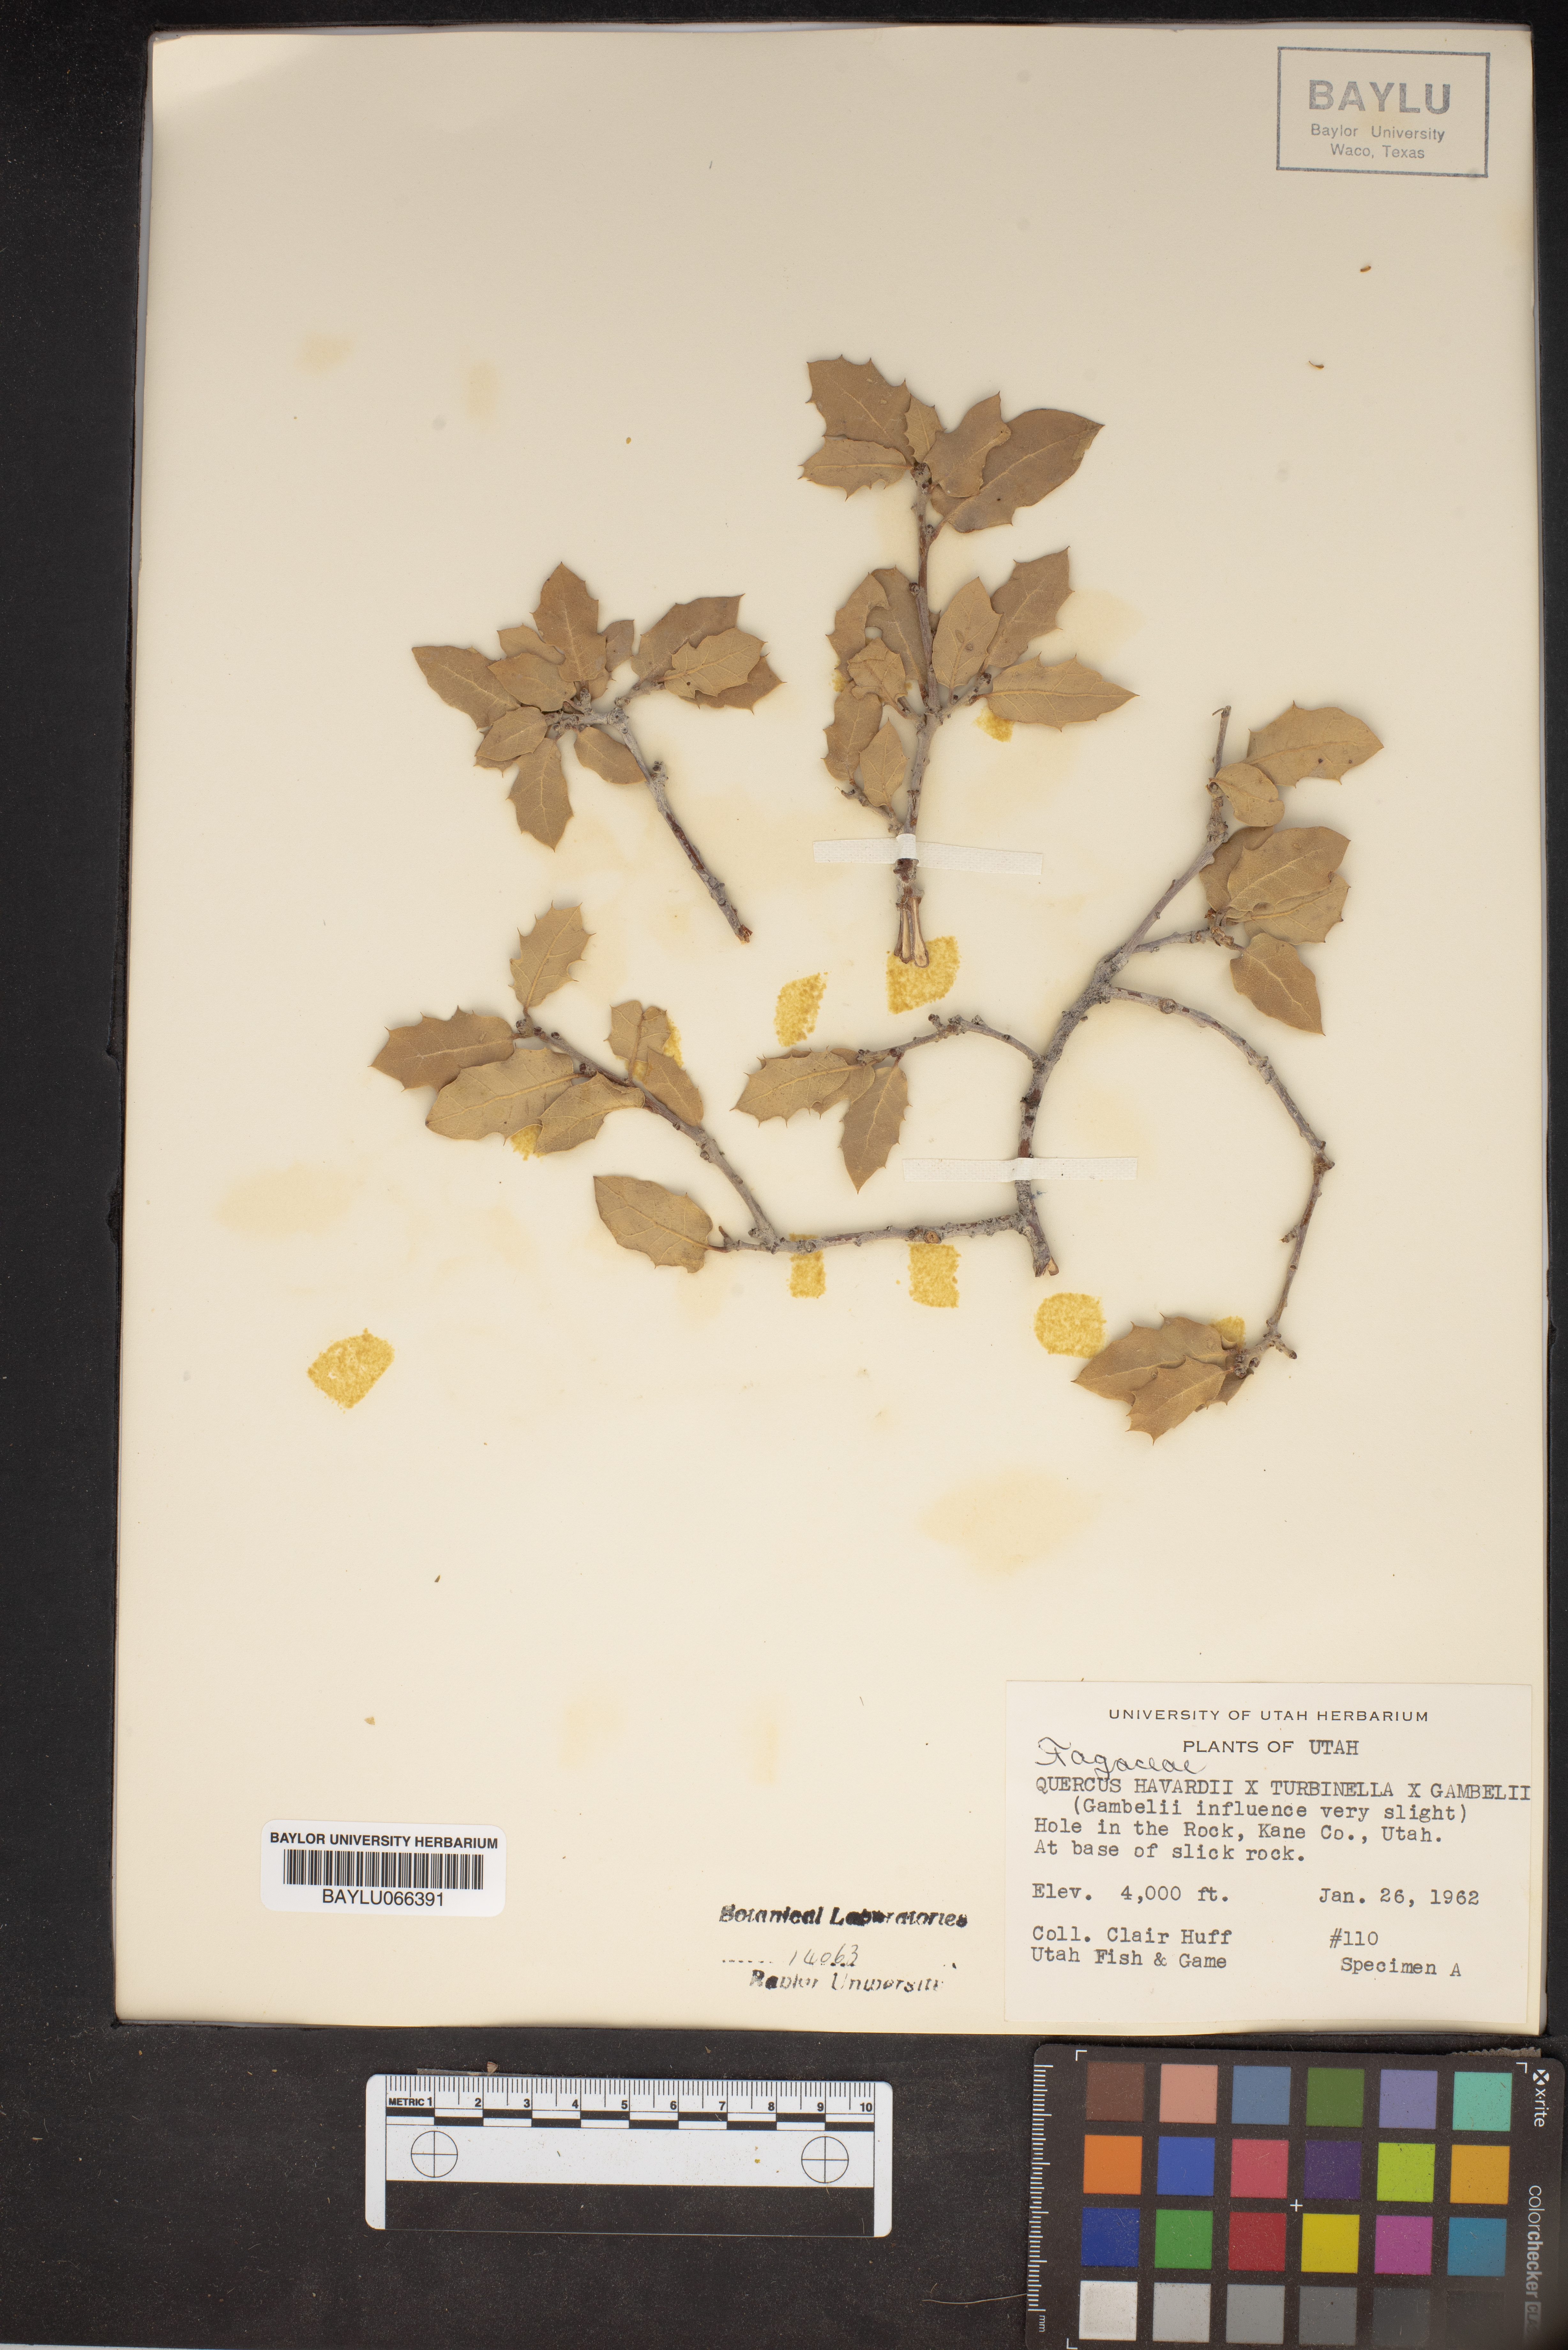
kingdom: Plantae
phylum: Tracheophyta
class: Magnoliopsida
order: Fagales
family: Fagaceae
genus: Quercus
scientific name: Quercus havardii
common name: Shinnery oak
